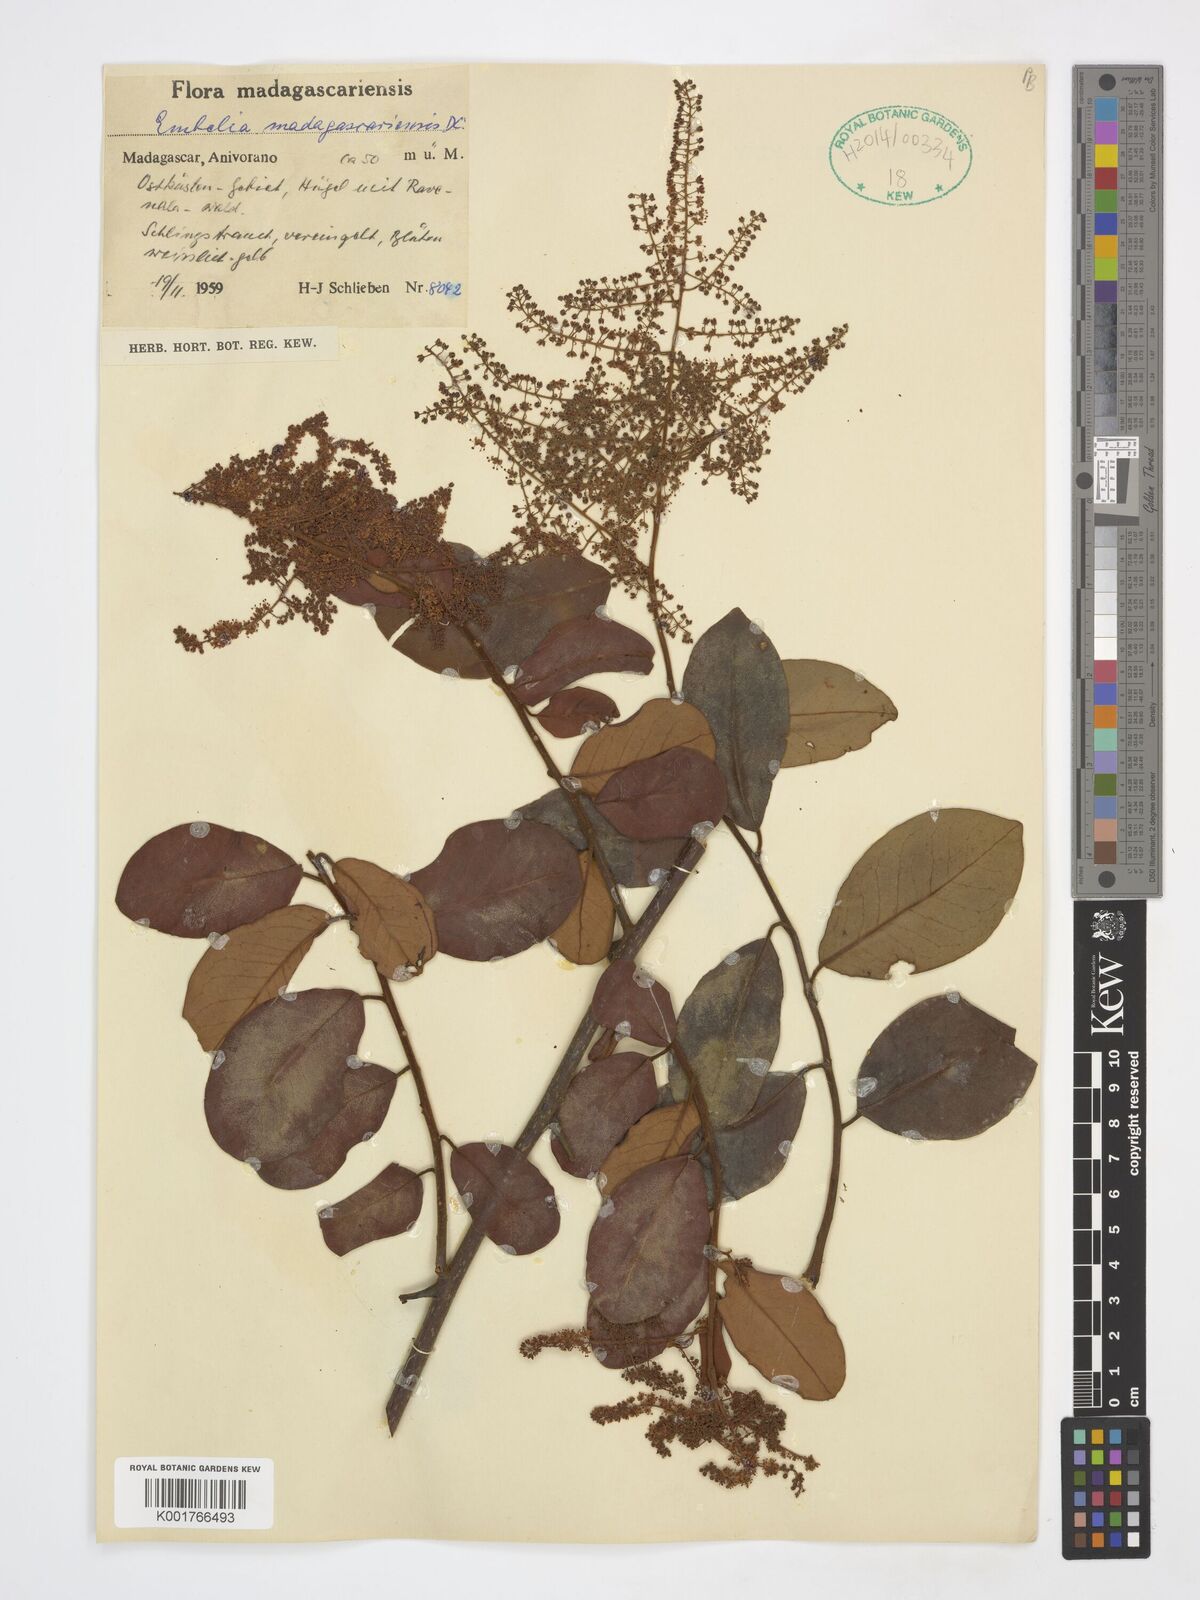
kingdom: Plantae
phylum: Tracheophyta
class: Magnoliopsida
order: Ericales
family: Primulaceae
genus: Embelia
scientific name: Embelia madagascariensis
